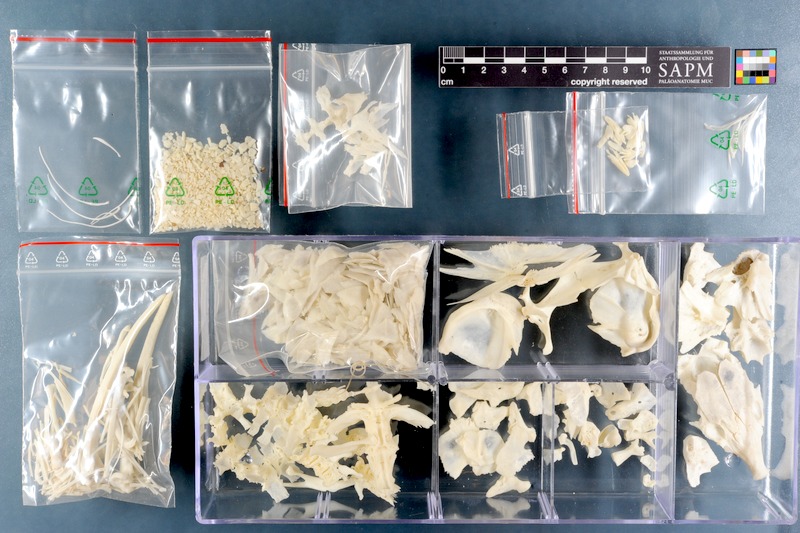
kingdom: Animalia
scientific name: Animalia
